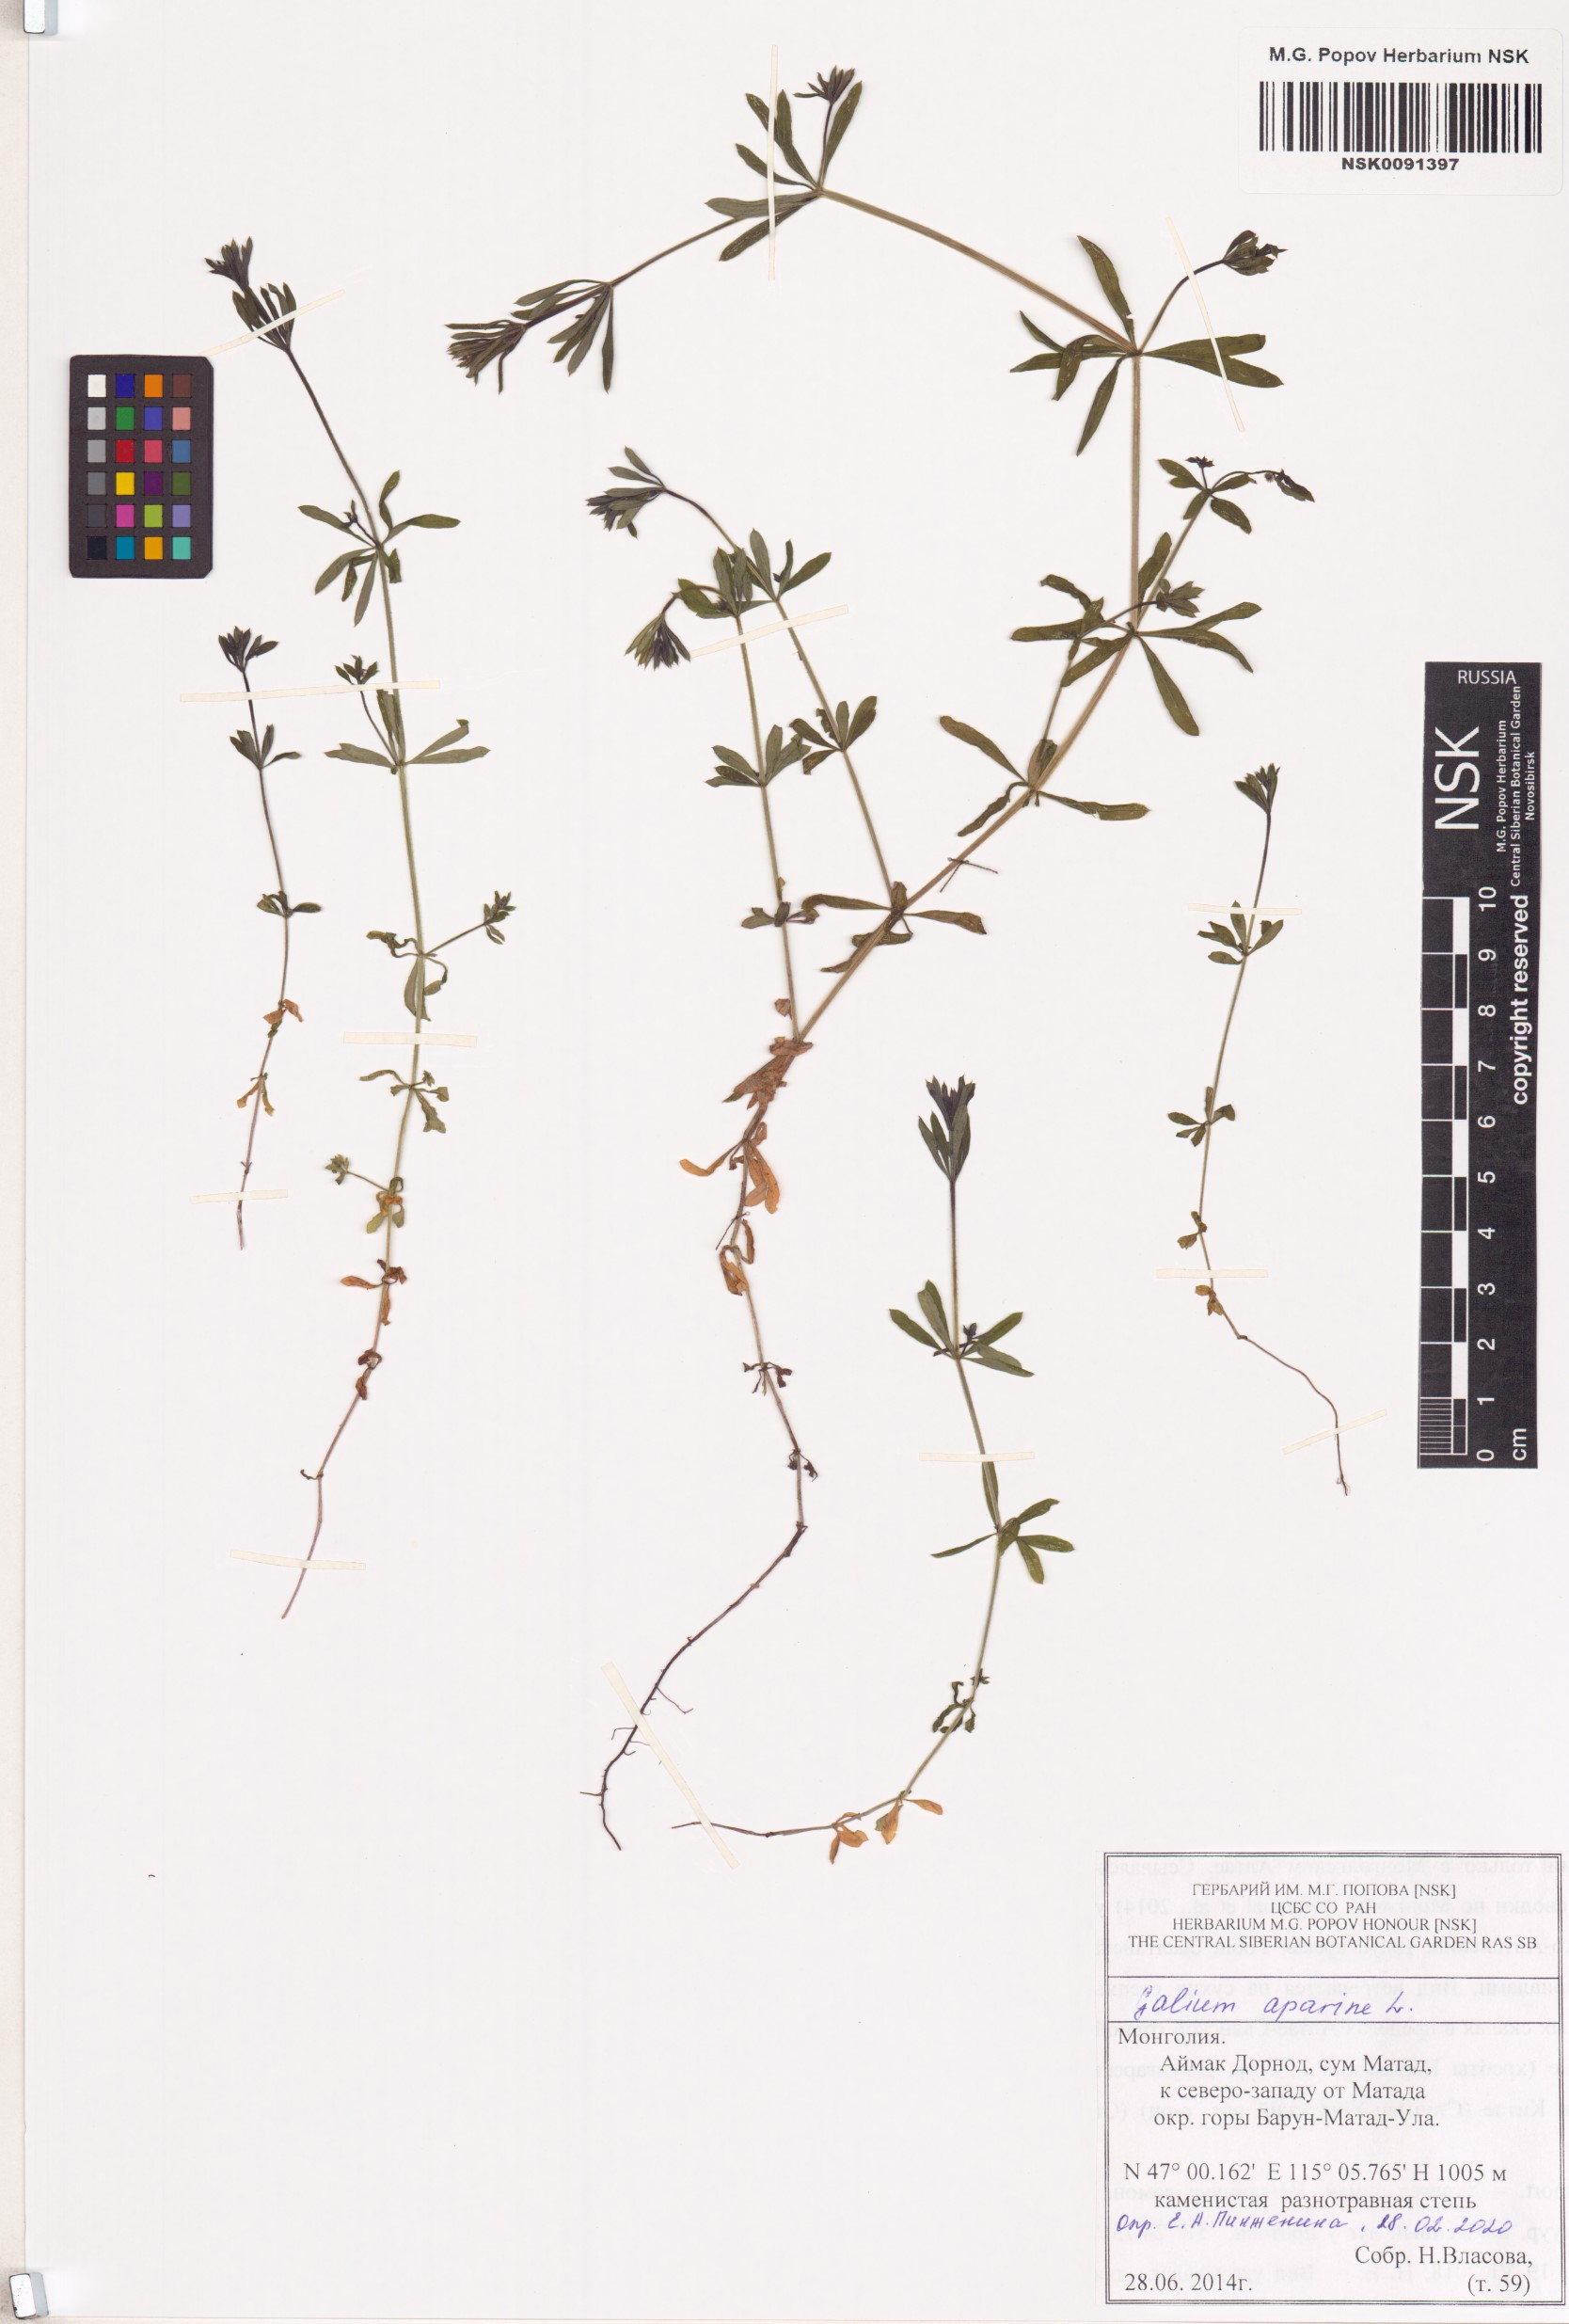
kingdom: Plantae
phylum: Tracheophyta
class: Magnoliopsida
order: Gentianales
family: Rubiaceae
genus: Galium
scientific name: Galium aparine
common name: Cleavers
